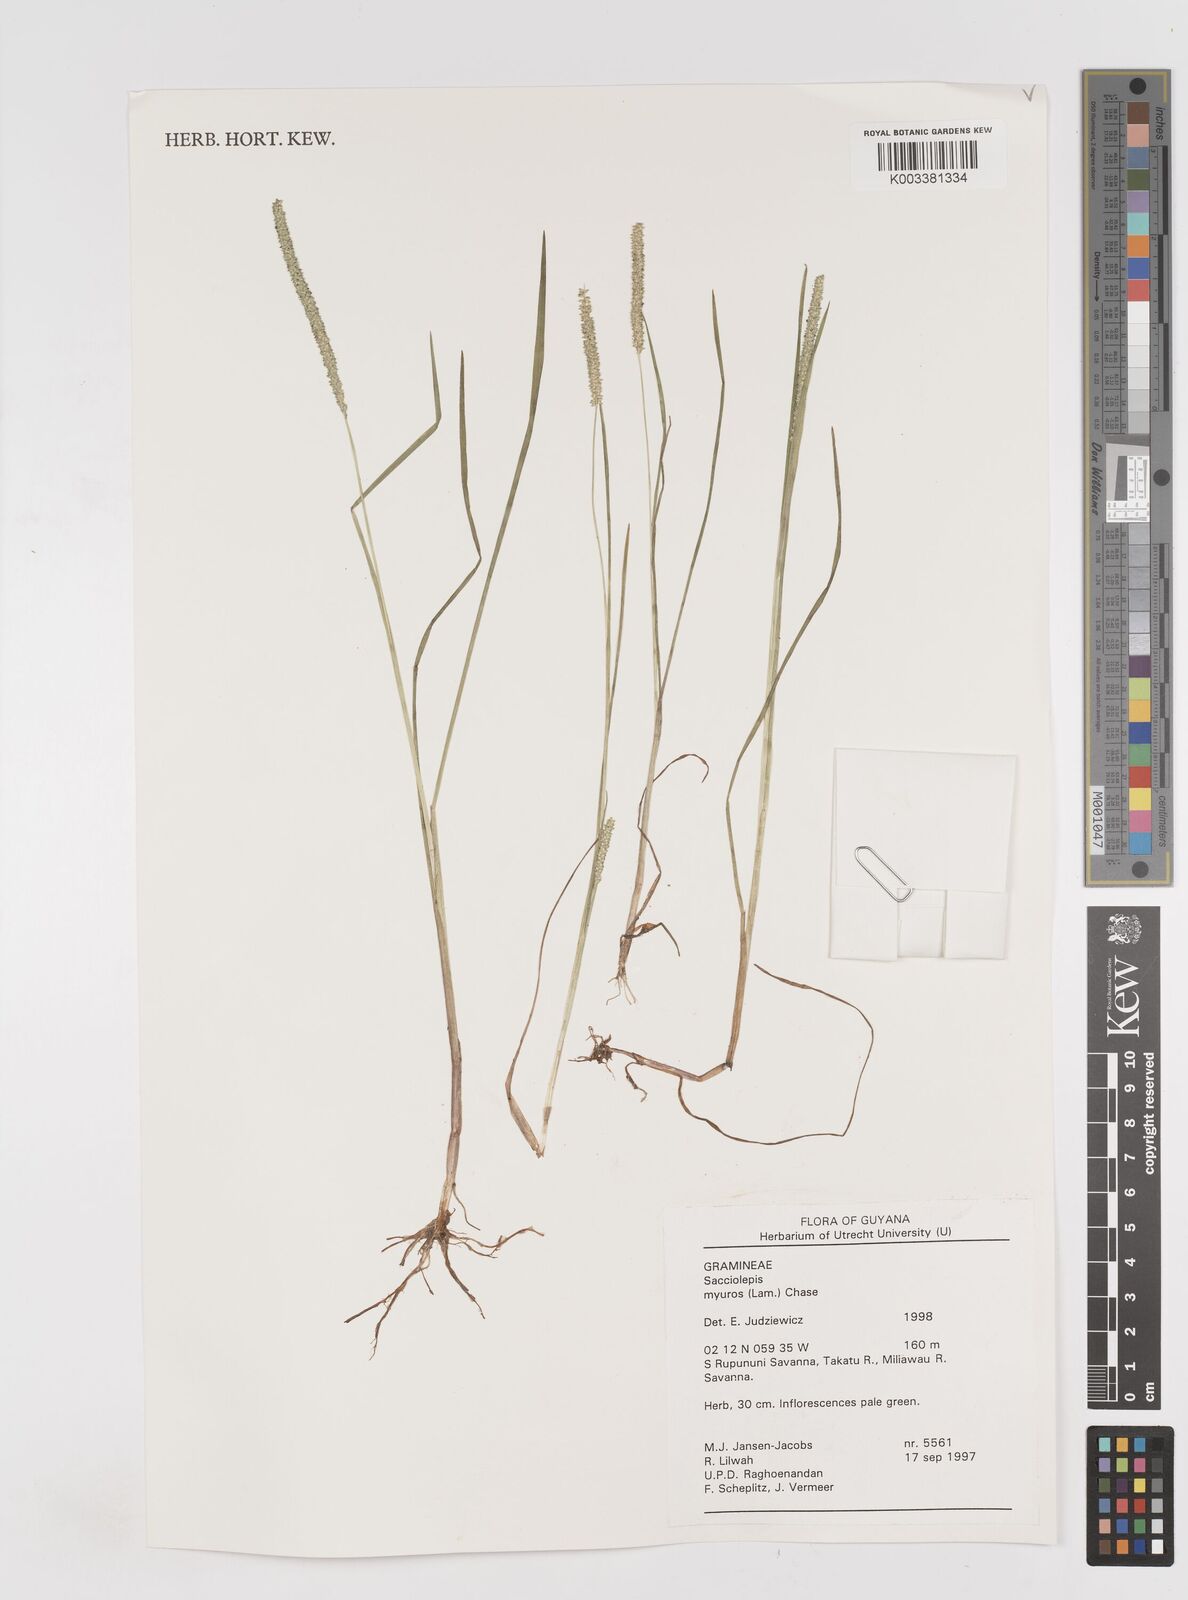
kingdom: Plantae
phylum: Tracheophyta
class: Liliopsida
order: Poales
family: Poaceae
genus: Sacciolepis
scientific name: Sacciolepis myuros
